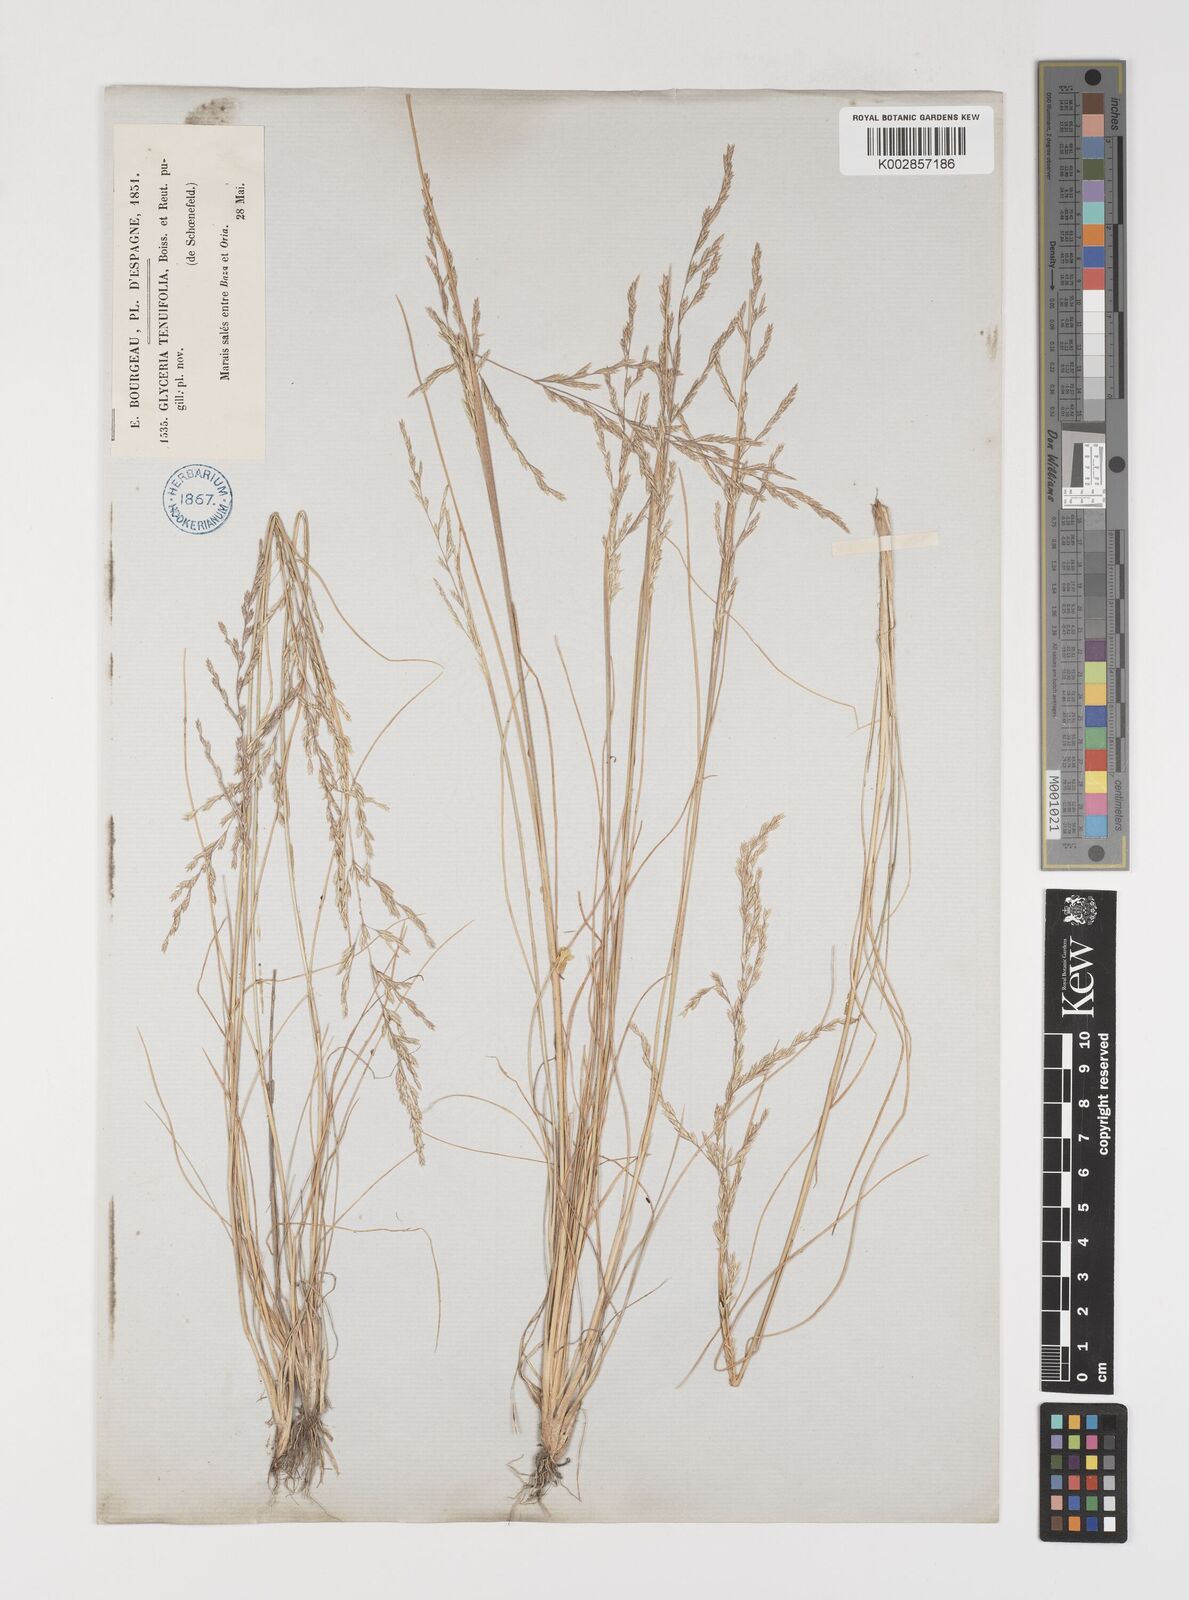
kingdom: Plantae
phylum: Tracheophyta
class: Liliopsida
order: Poales
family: Poaceae
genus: Puccinellia
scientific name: Puccinellia tenuifolia
